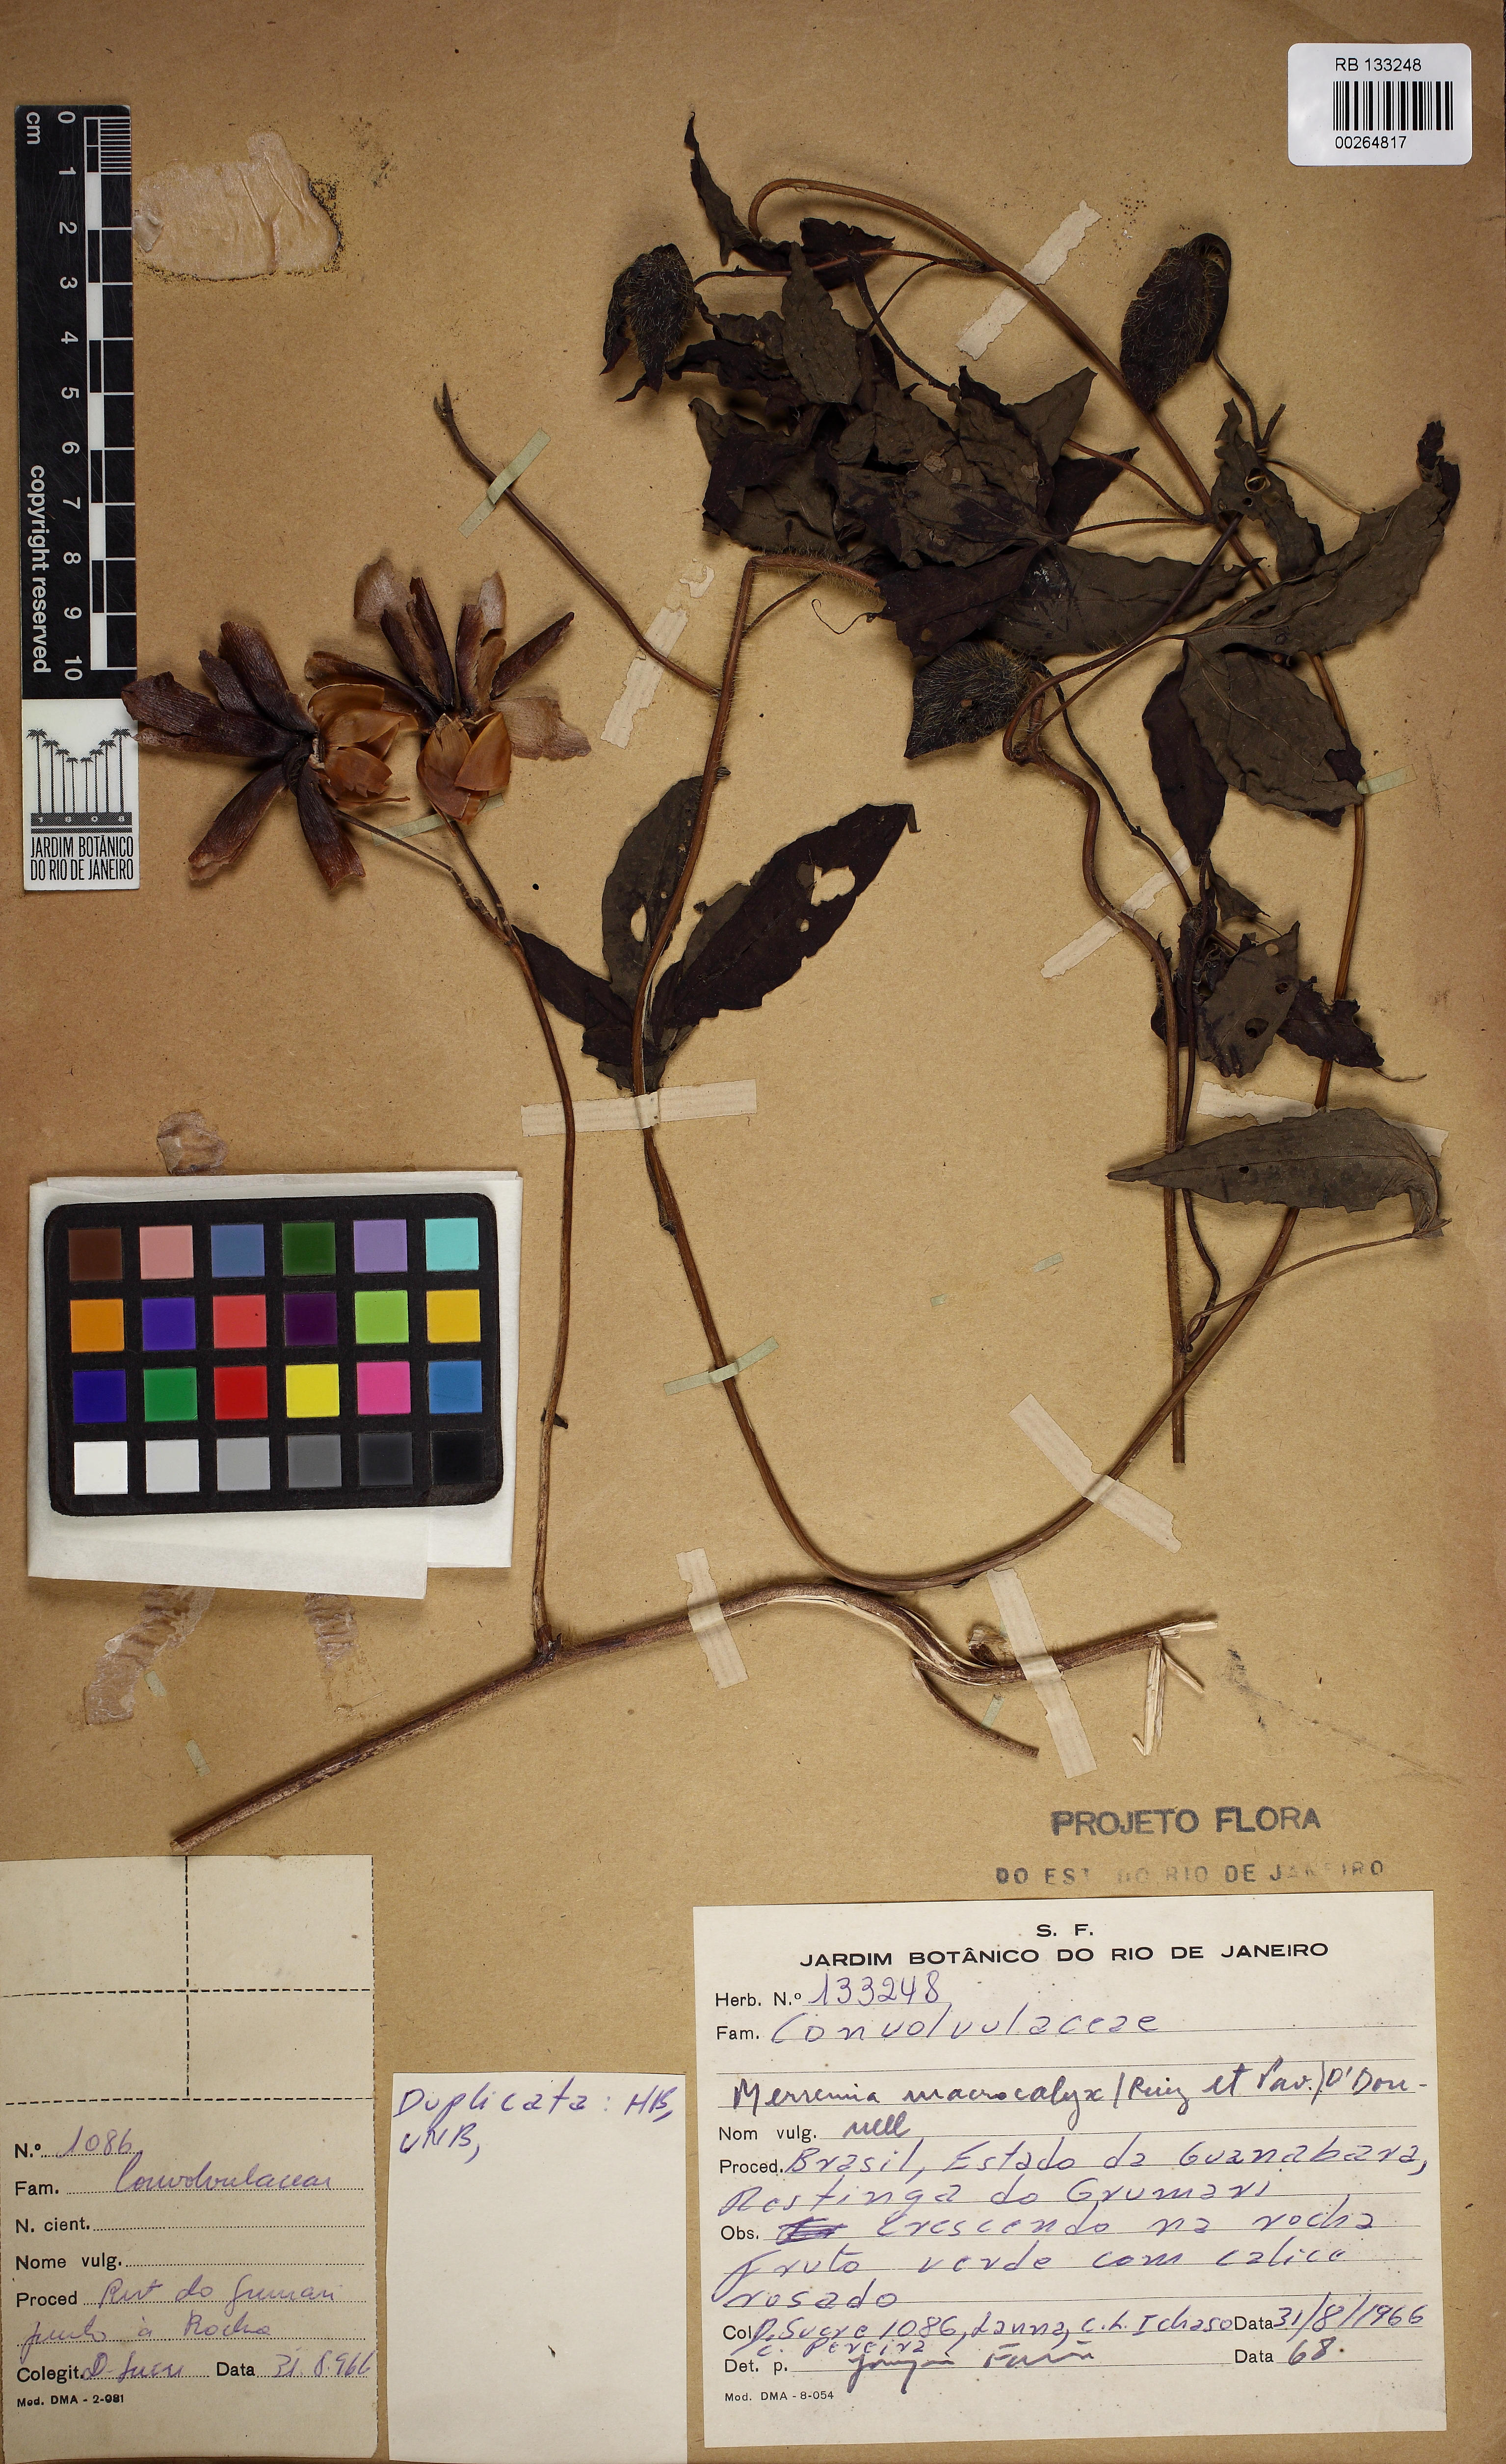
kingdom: Plantae
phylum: Tracheophyta
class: Magnoliopsida
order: Solanales
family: Convolvulaceae
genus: Distimake
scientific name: Distimake dissectus
